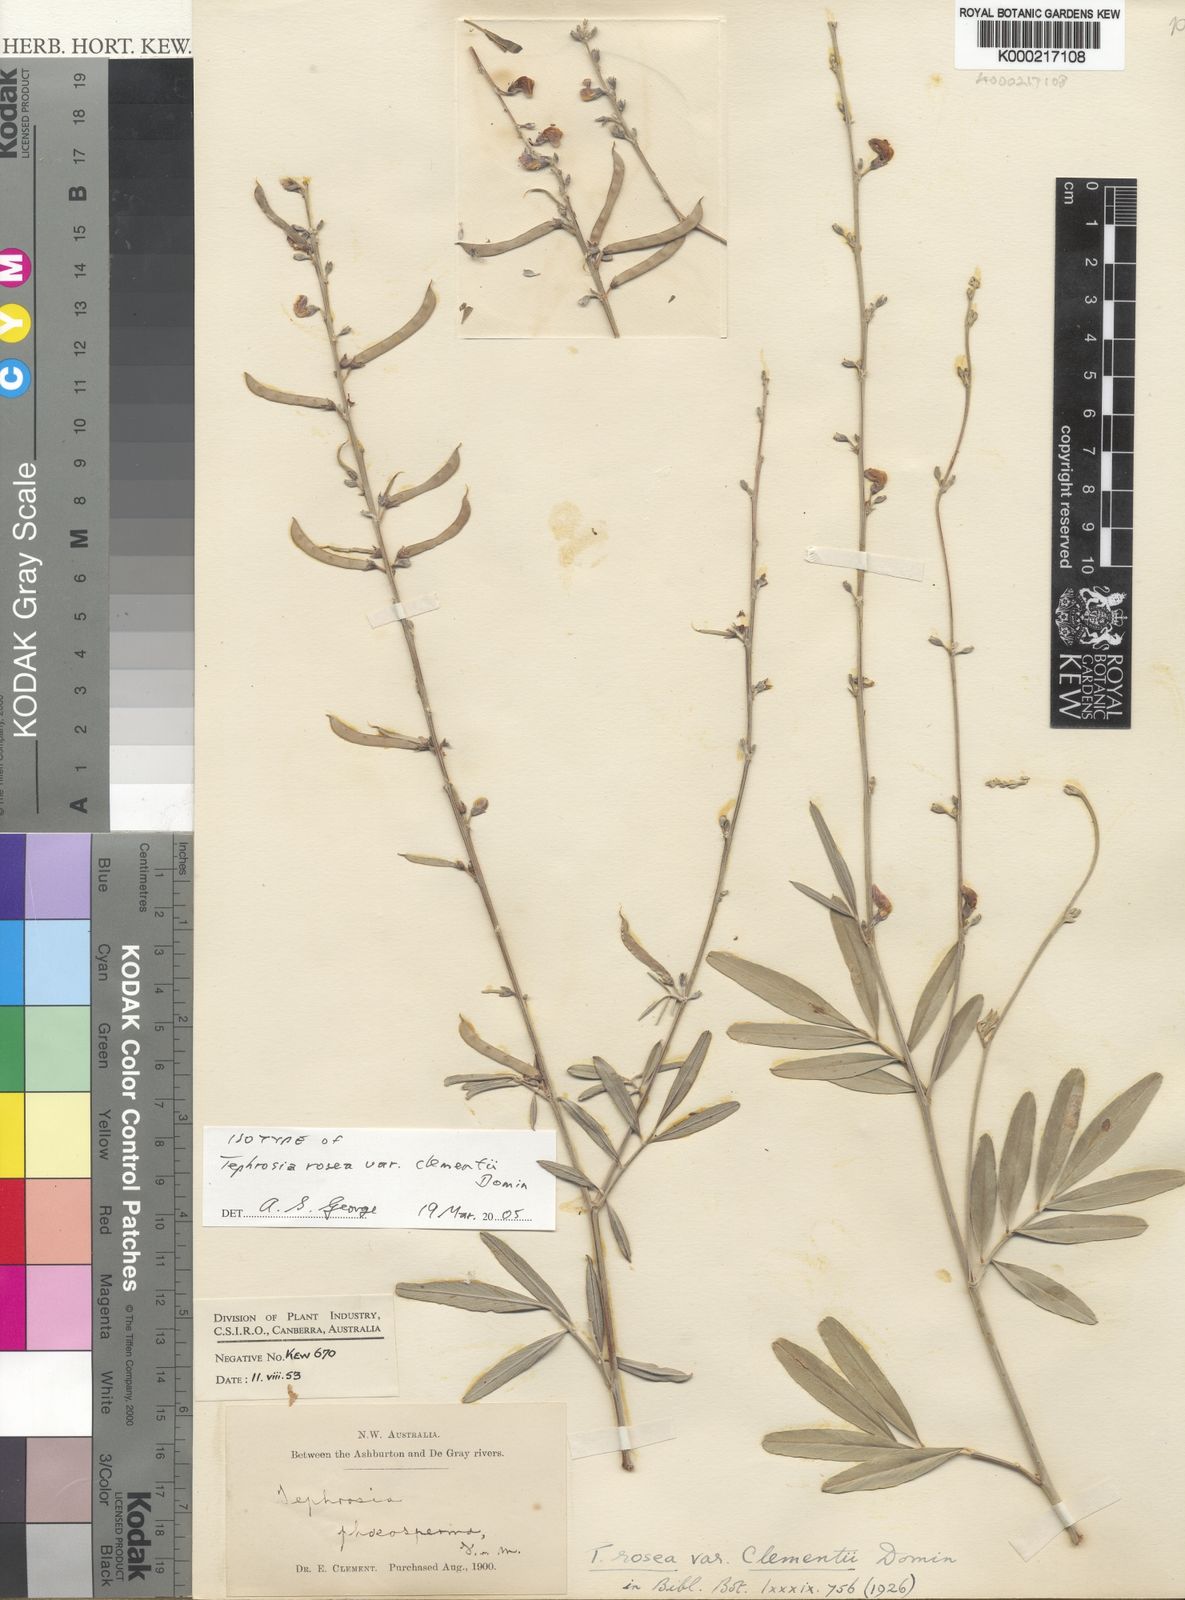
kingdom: Plantae
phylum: Tracheophyta
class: Magnoliopsida
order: Fabales
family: Fabaceae
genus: Tephrosia
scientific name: Tephrosia rosea
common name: Flinders river-poison
